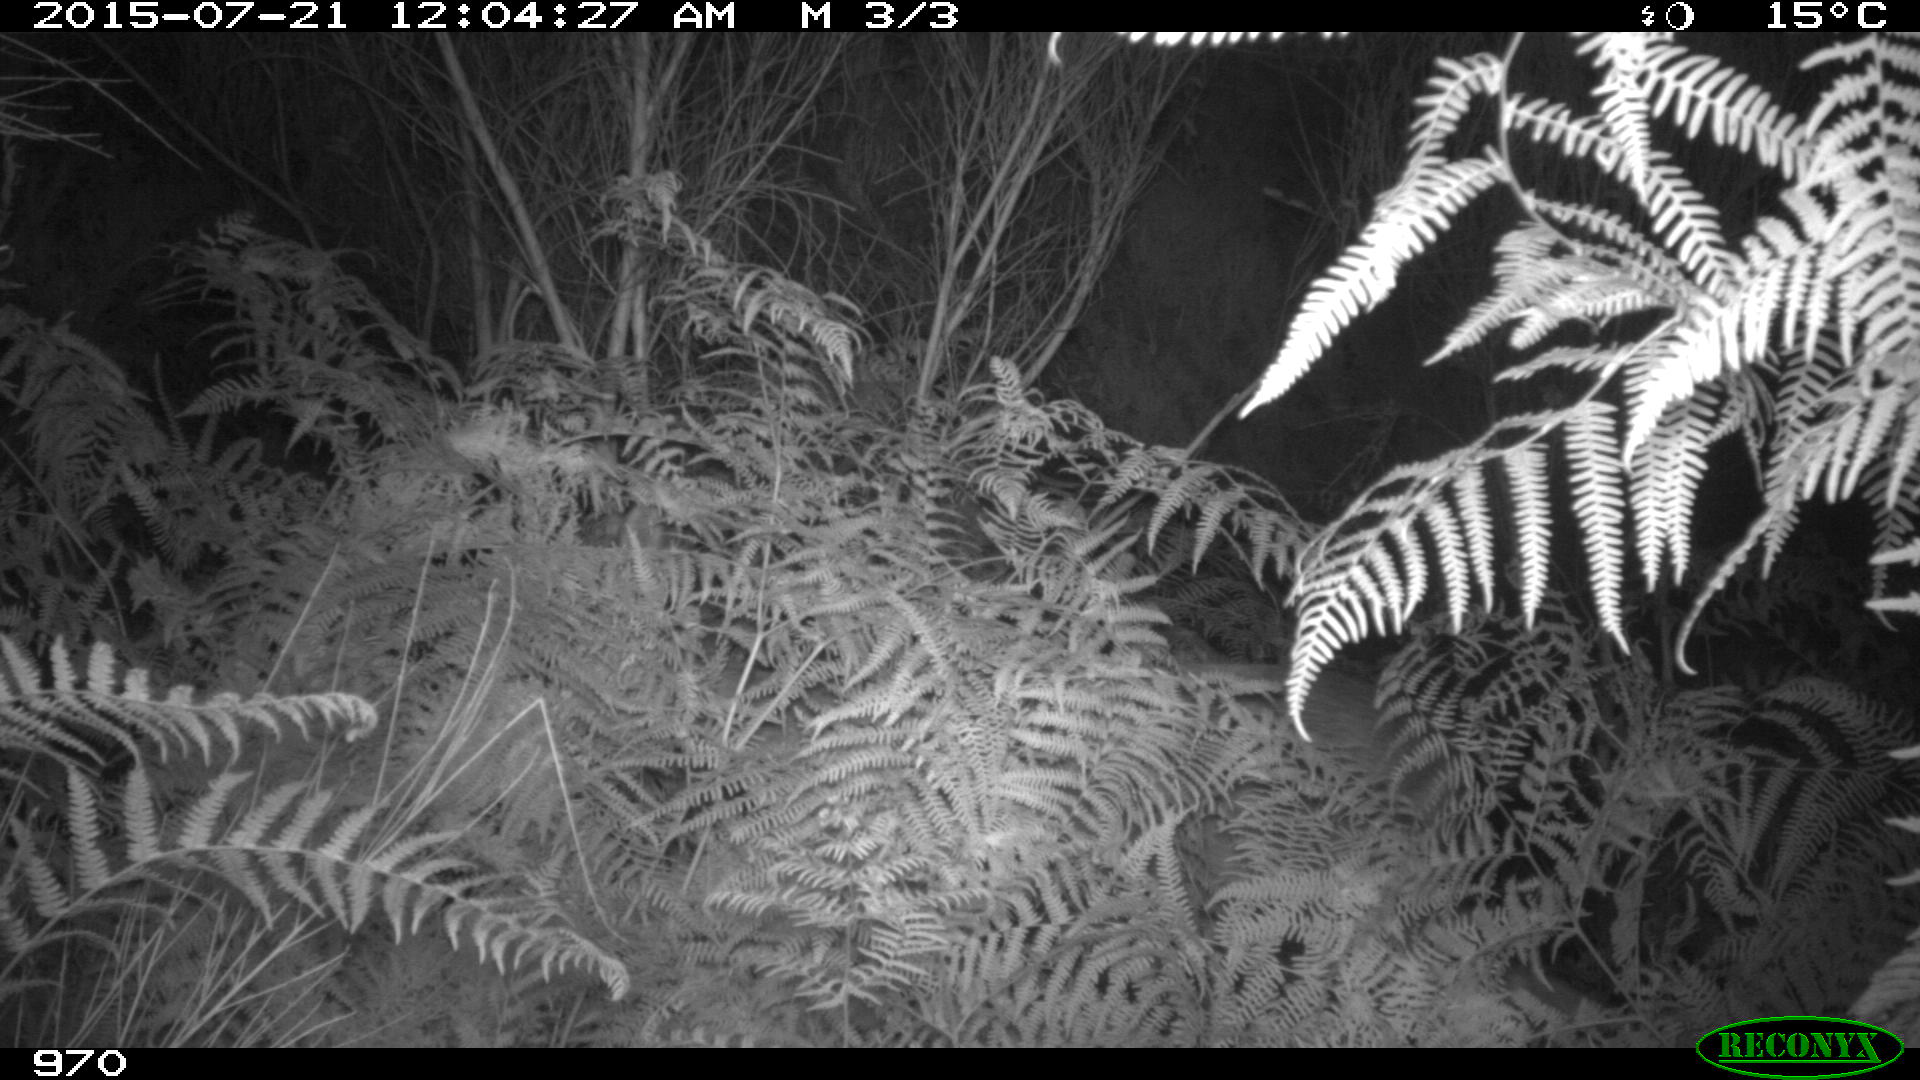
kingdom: Animalia
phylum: Chordata
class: Mammalia
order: Artiodactyla
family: Cervidae
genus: Capreolus
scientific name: Capreolus capreolus
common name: Western roe deer
